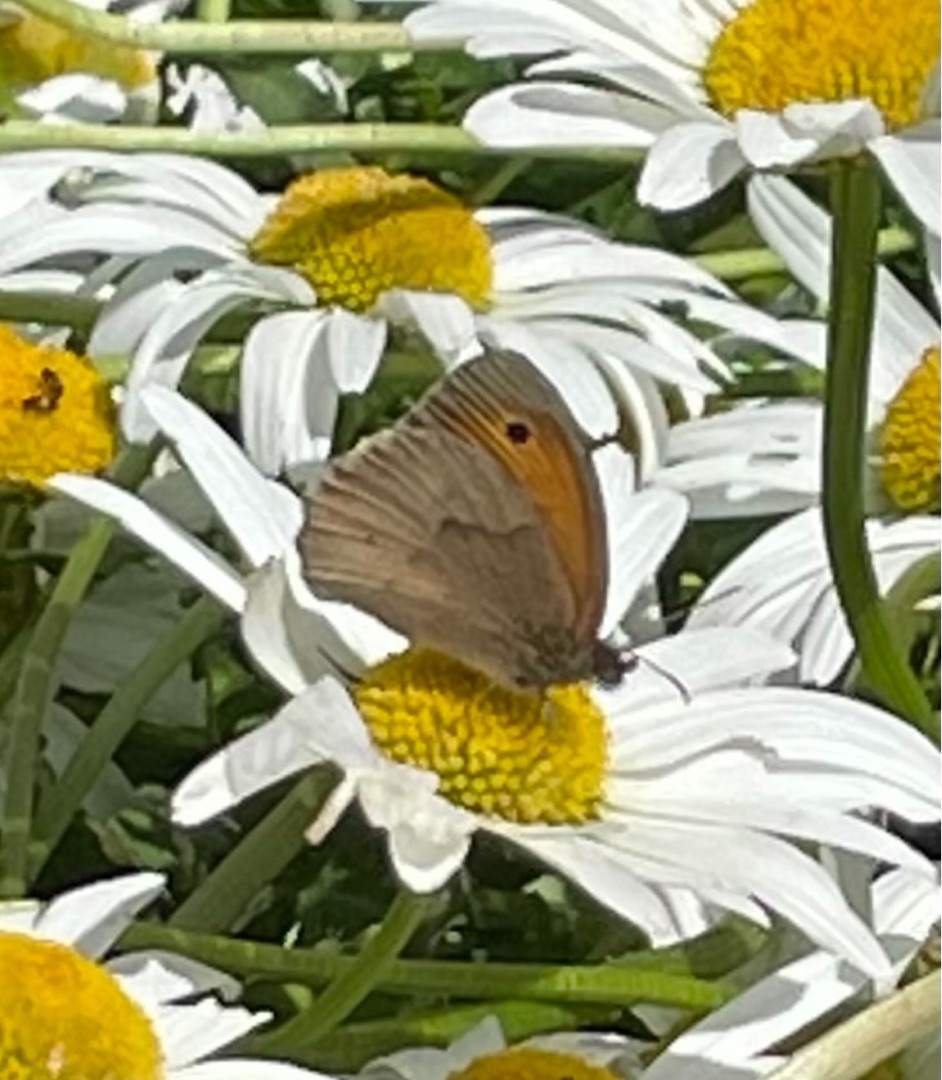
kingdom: Animalia
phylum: Arthropoda
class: Insecta
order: Lepidoptera
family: Nymphalidae
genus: Maniola
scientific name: Maniola jurtina
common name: Græsrandøje
